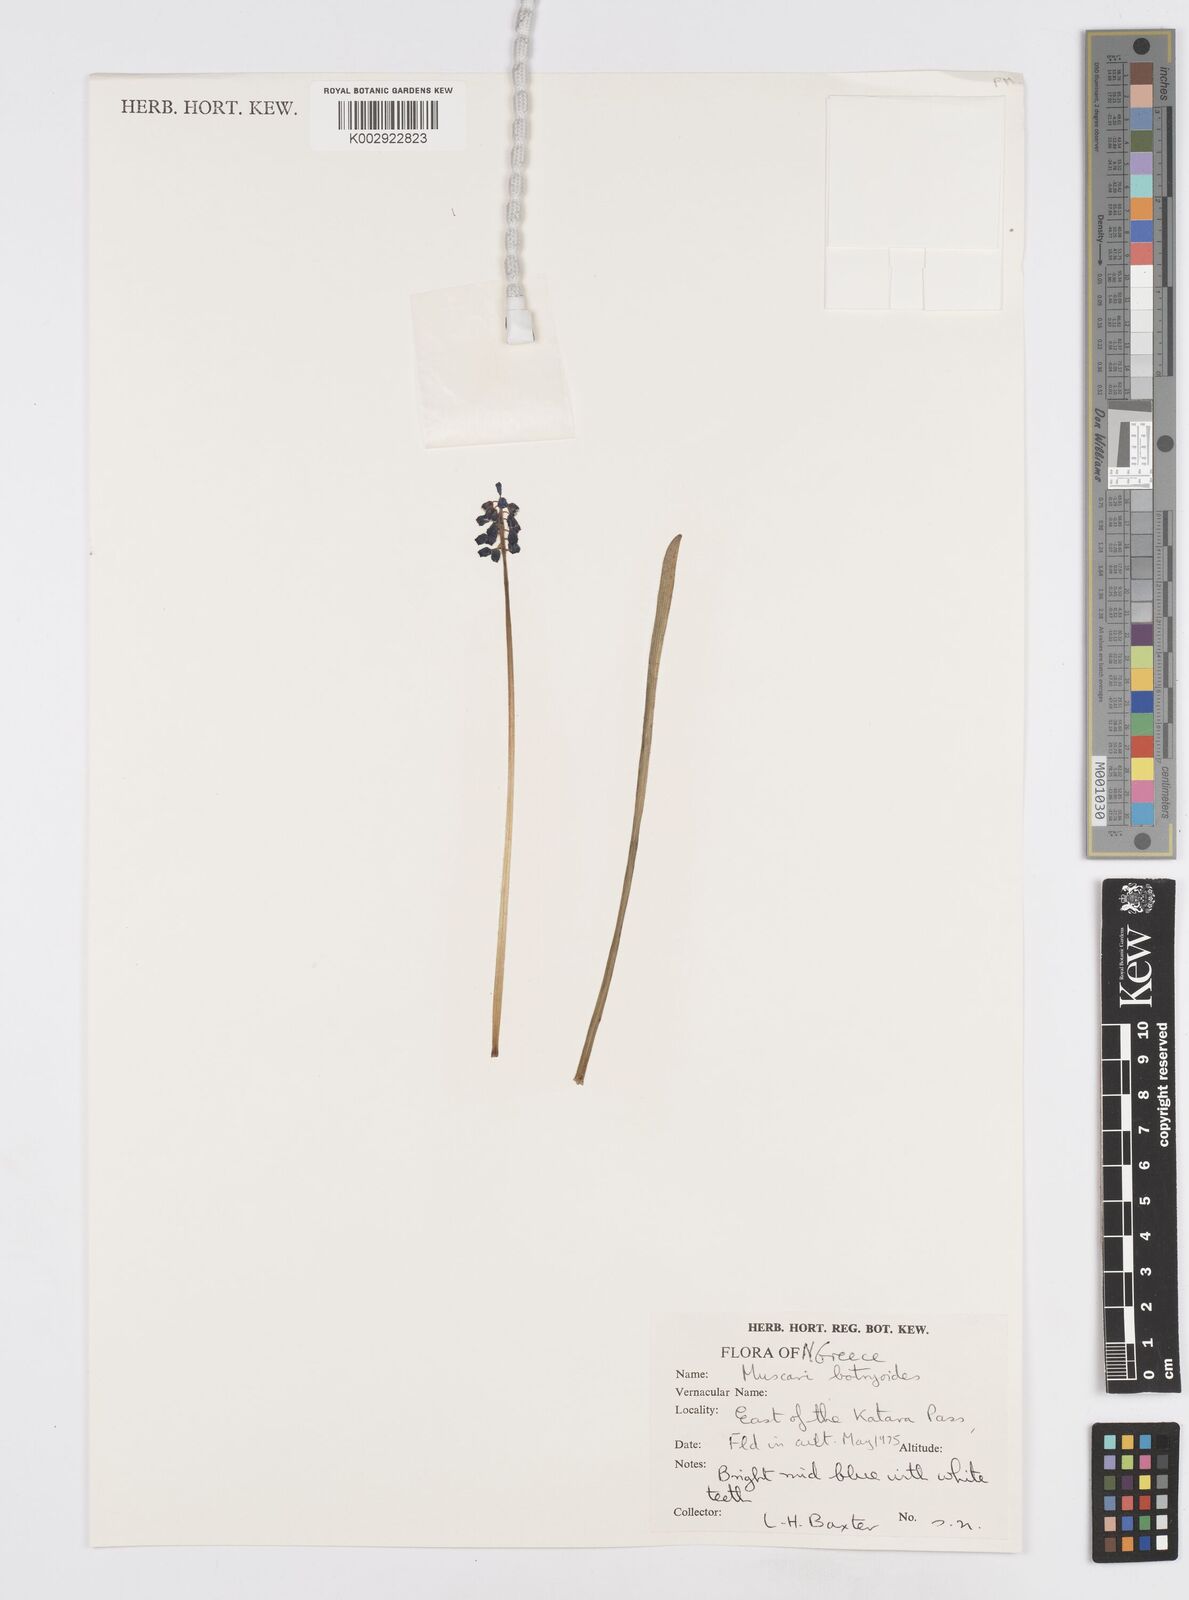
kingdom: Plantae
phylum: Tracheophyta
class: Liliopsida
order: Asparagales
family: Asparagaceae
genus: Muscari
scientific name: Muscari botryoides
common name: Compact grape-hyacinth
